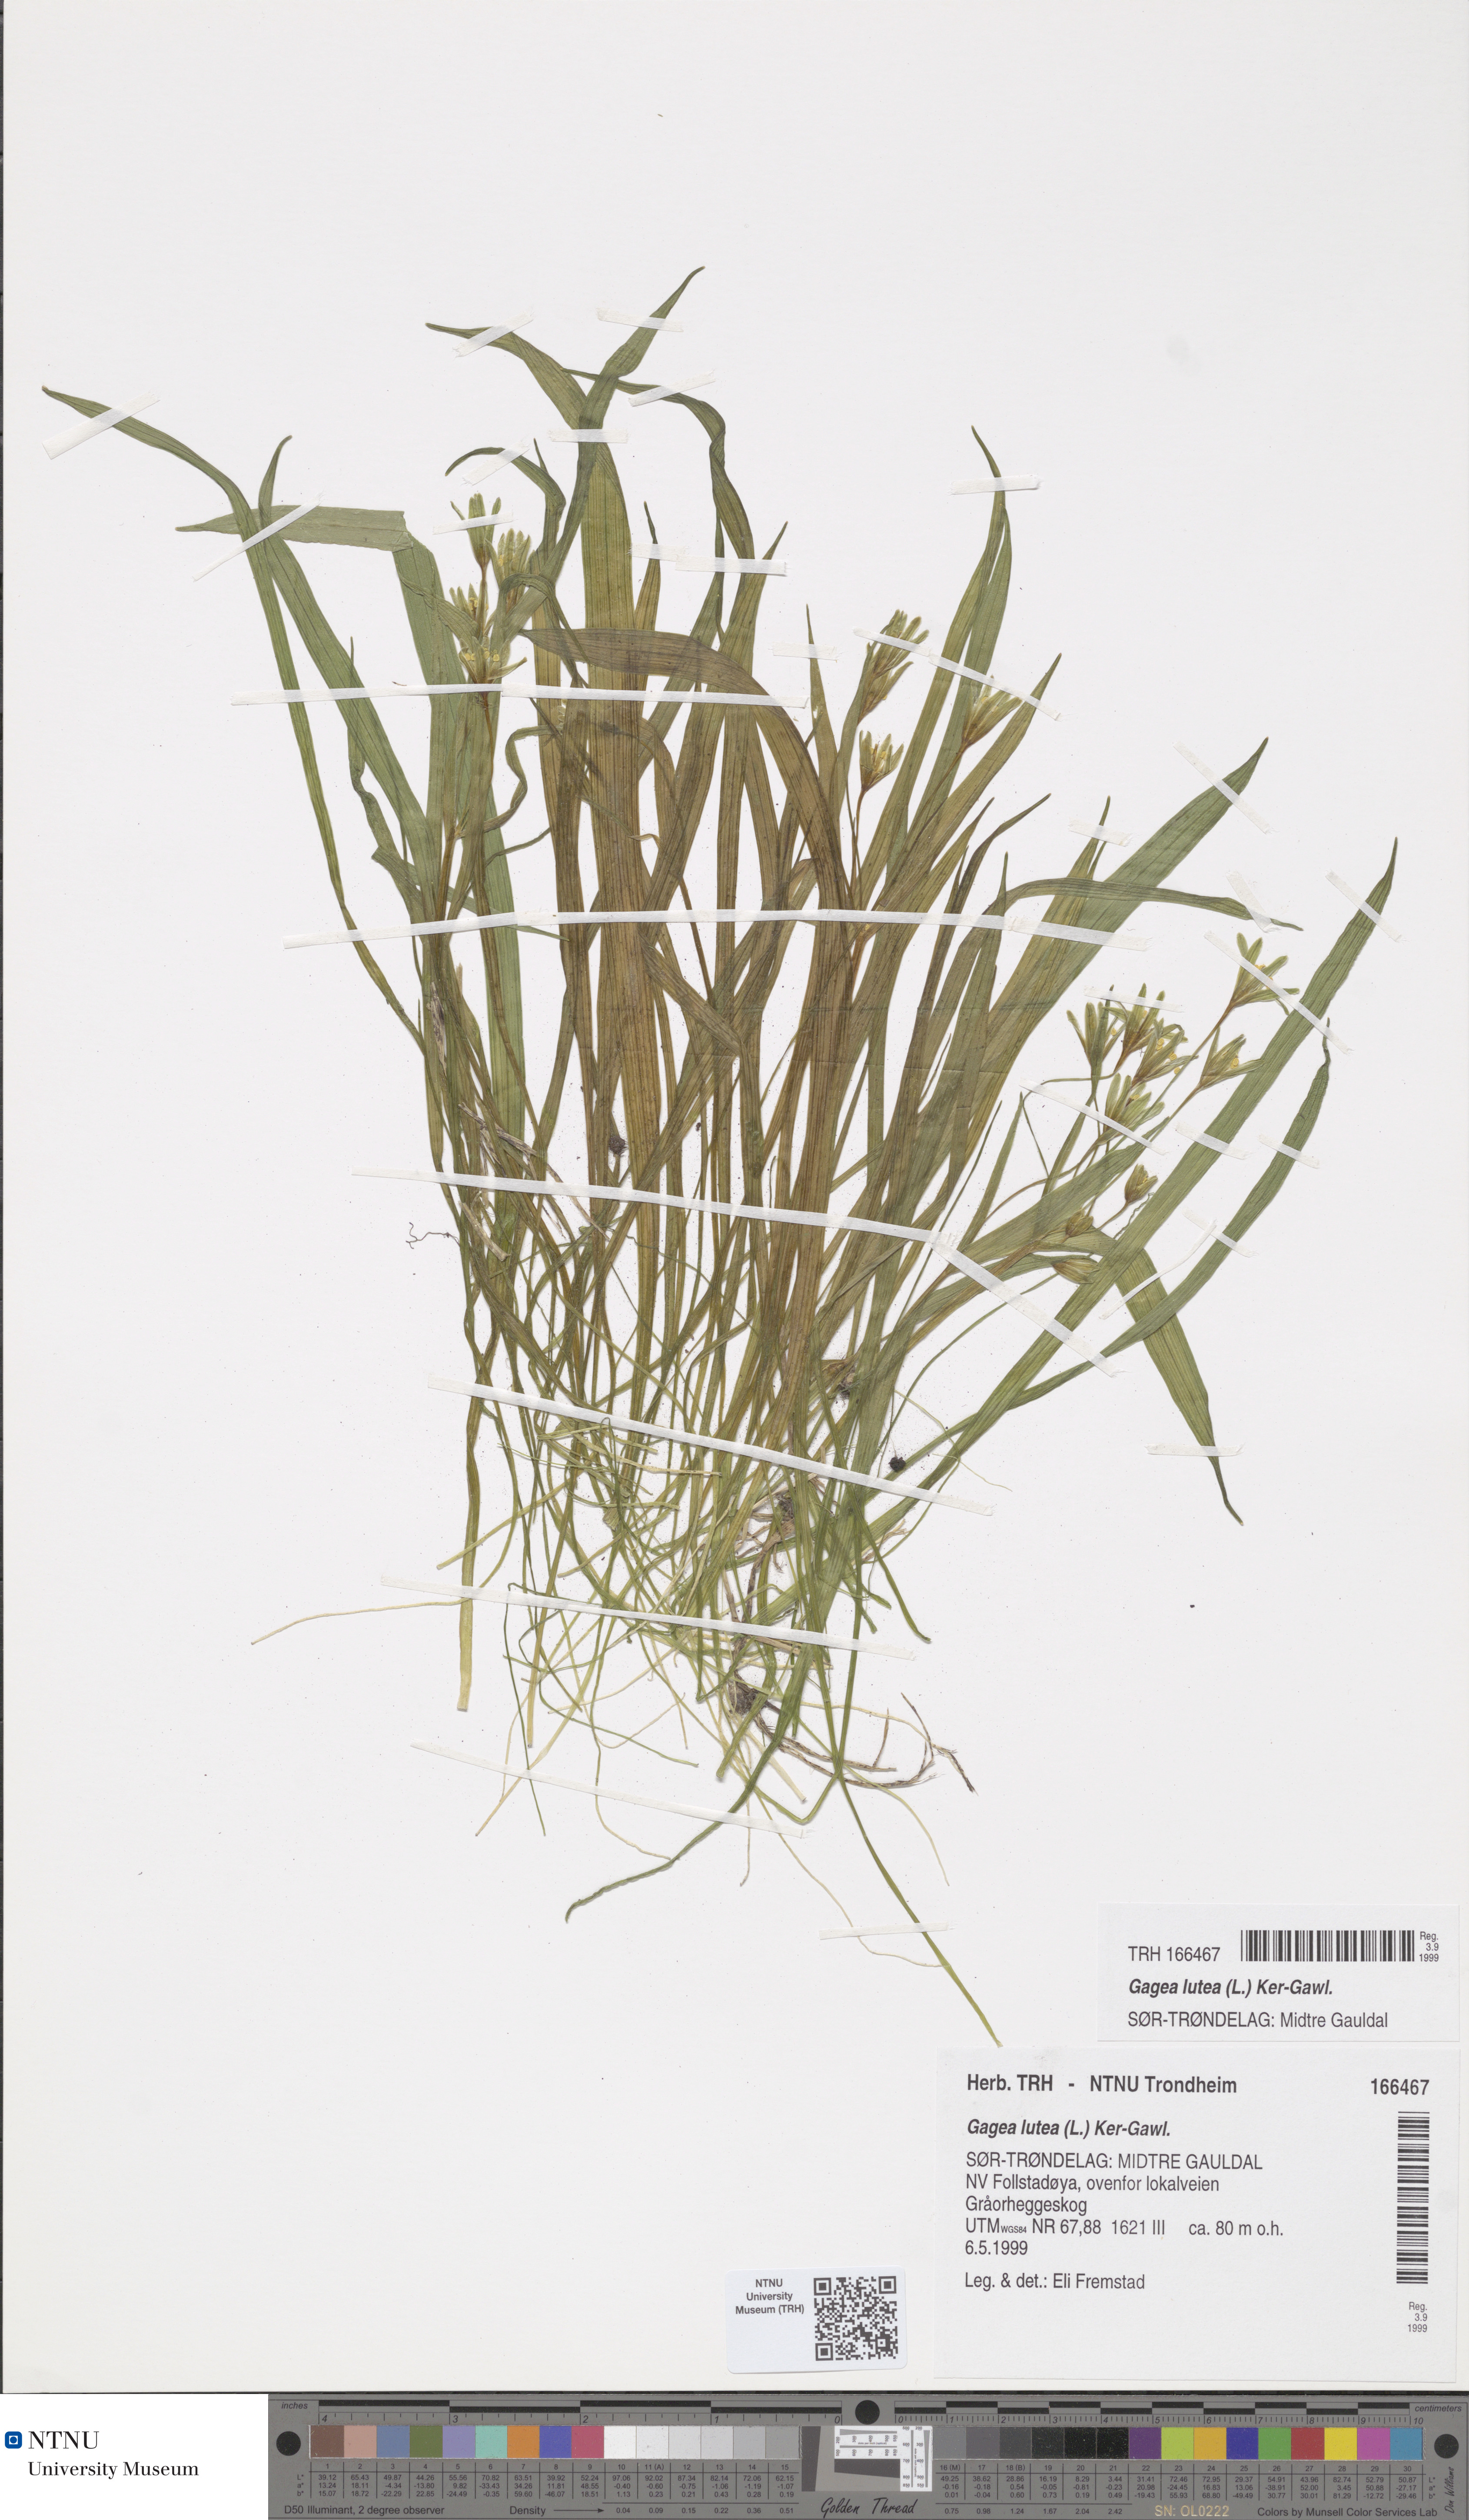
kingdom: Plantae
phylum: Tracheophyta
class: Liliopsida
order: Liliales
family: Liliaceae
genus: Gagea
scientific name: Gagea lutea
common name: Yellow star-of-bethlehem
